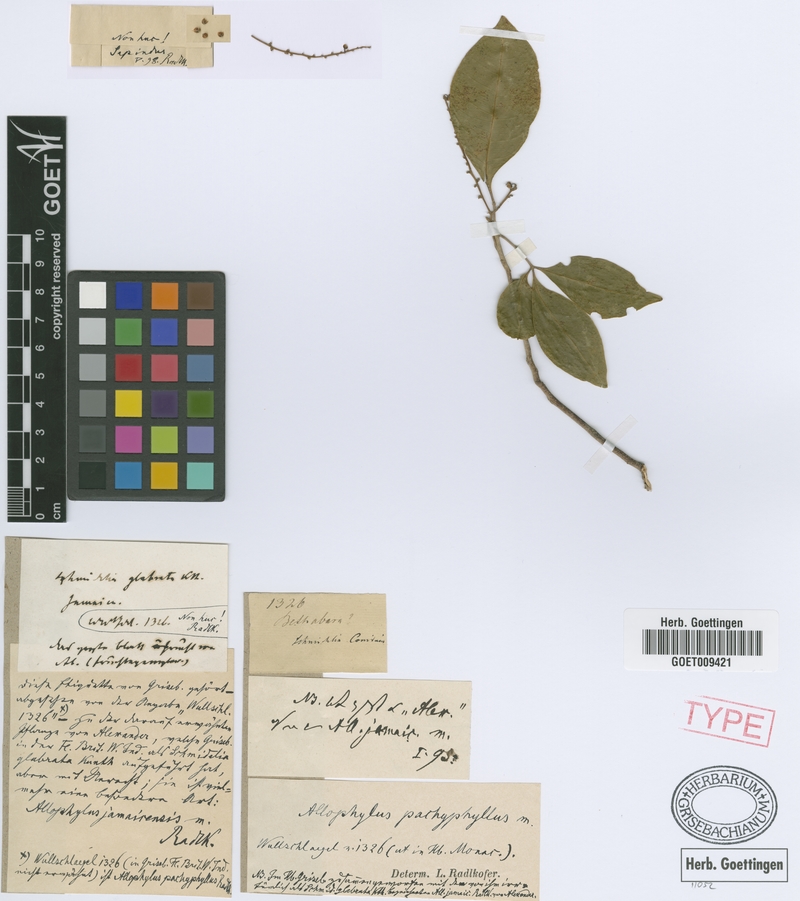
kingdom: Plantae
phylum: Tracheophyta
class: Magnoliopsida
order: Sapindales
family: Sapindaceae
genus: Allophylus
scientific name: Allophylus pachyphyllus
